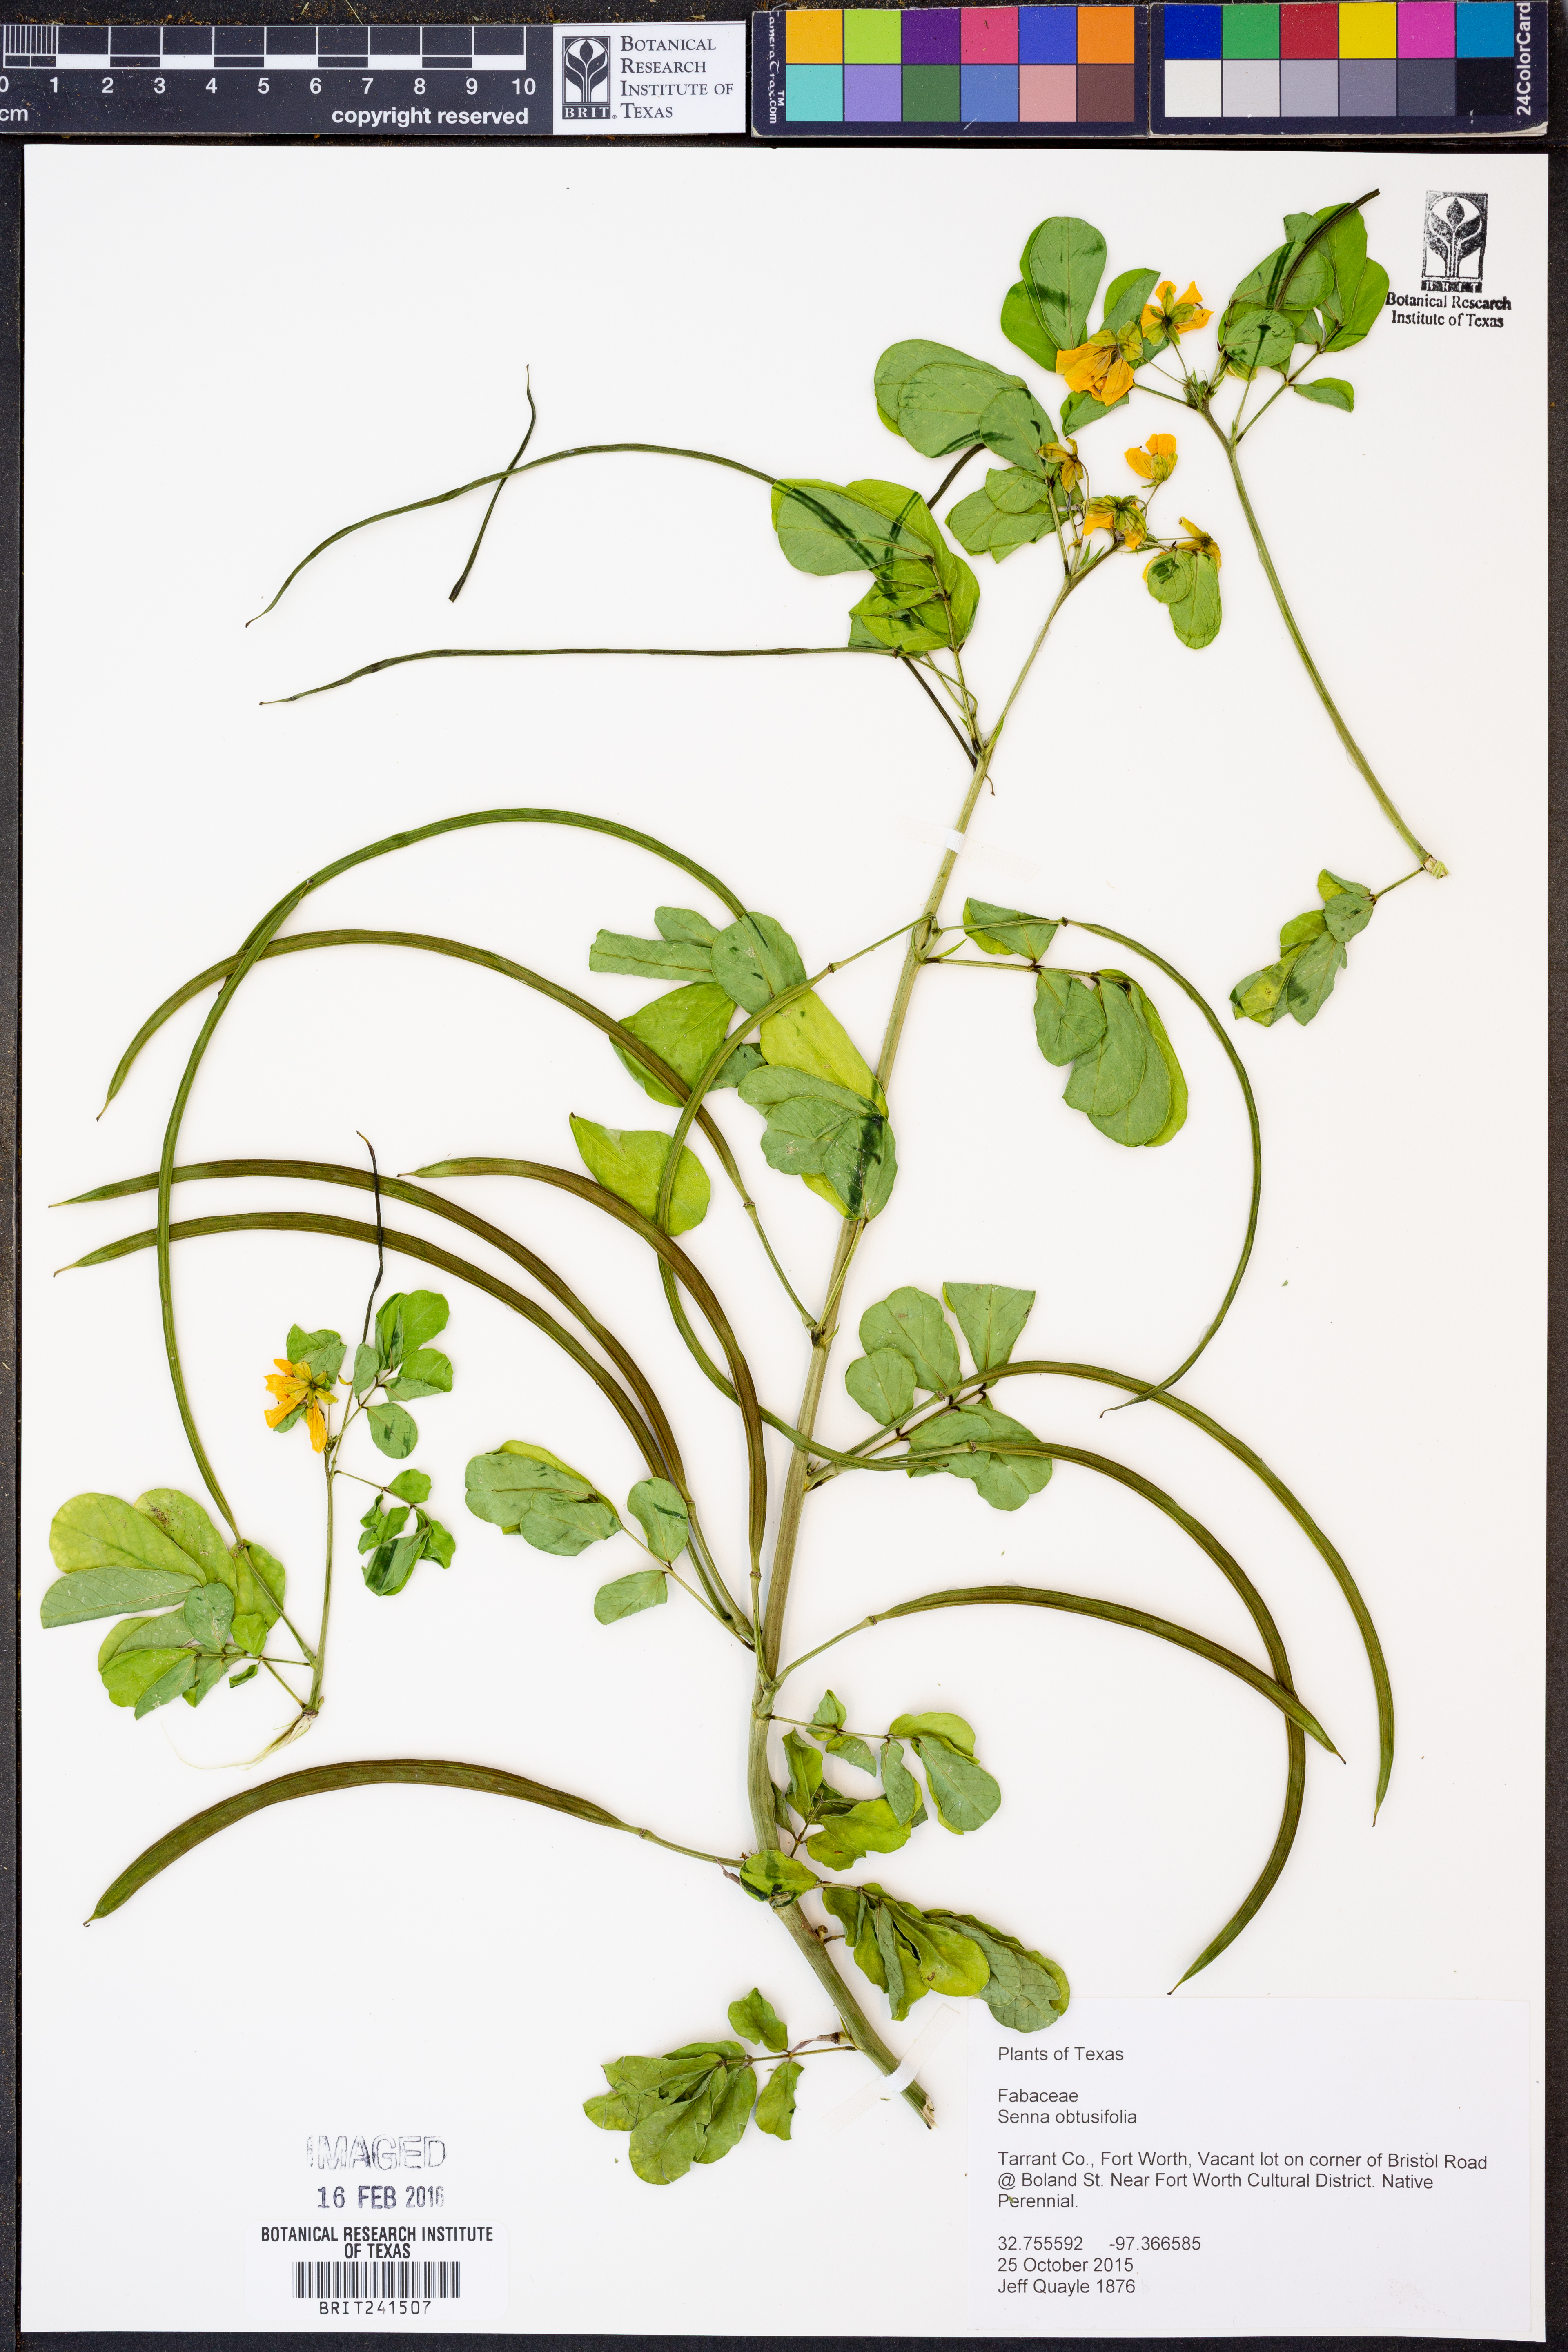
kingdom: Plantae
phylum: Tracheophyta
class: Magnoliopsida
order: Fabales
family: Fabaceae
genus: Senna
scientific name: Senna obtusifolia
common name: Java-bean
